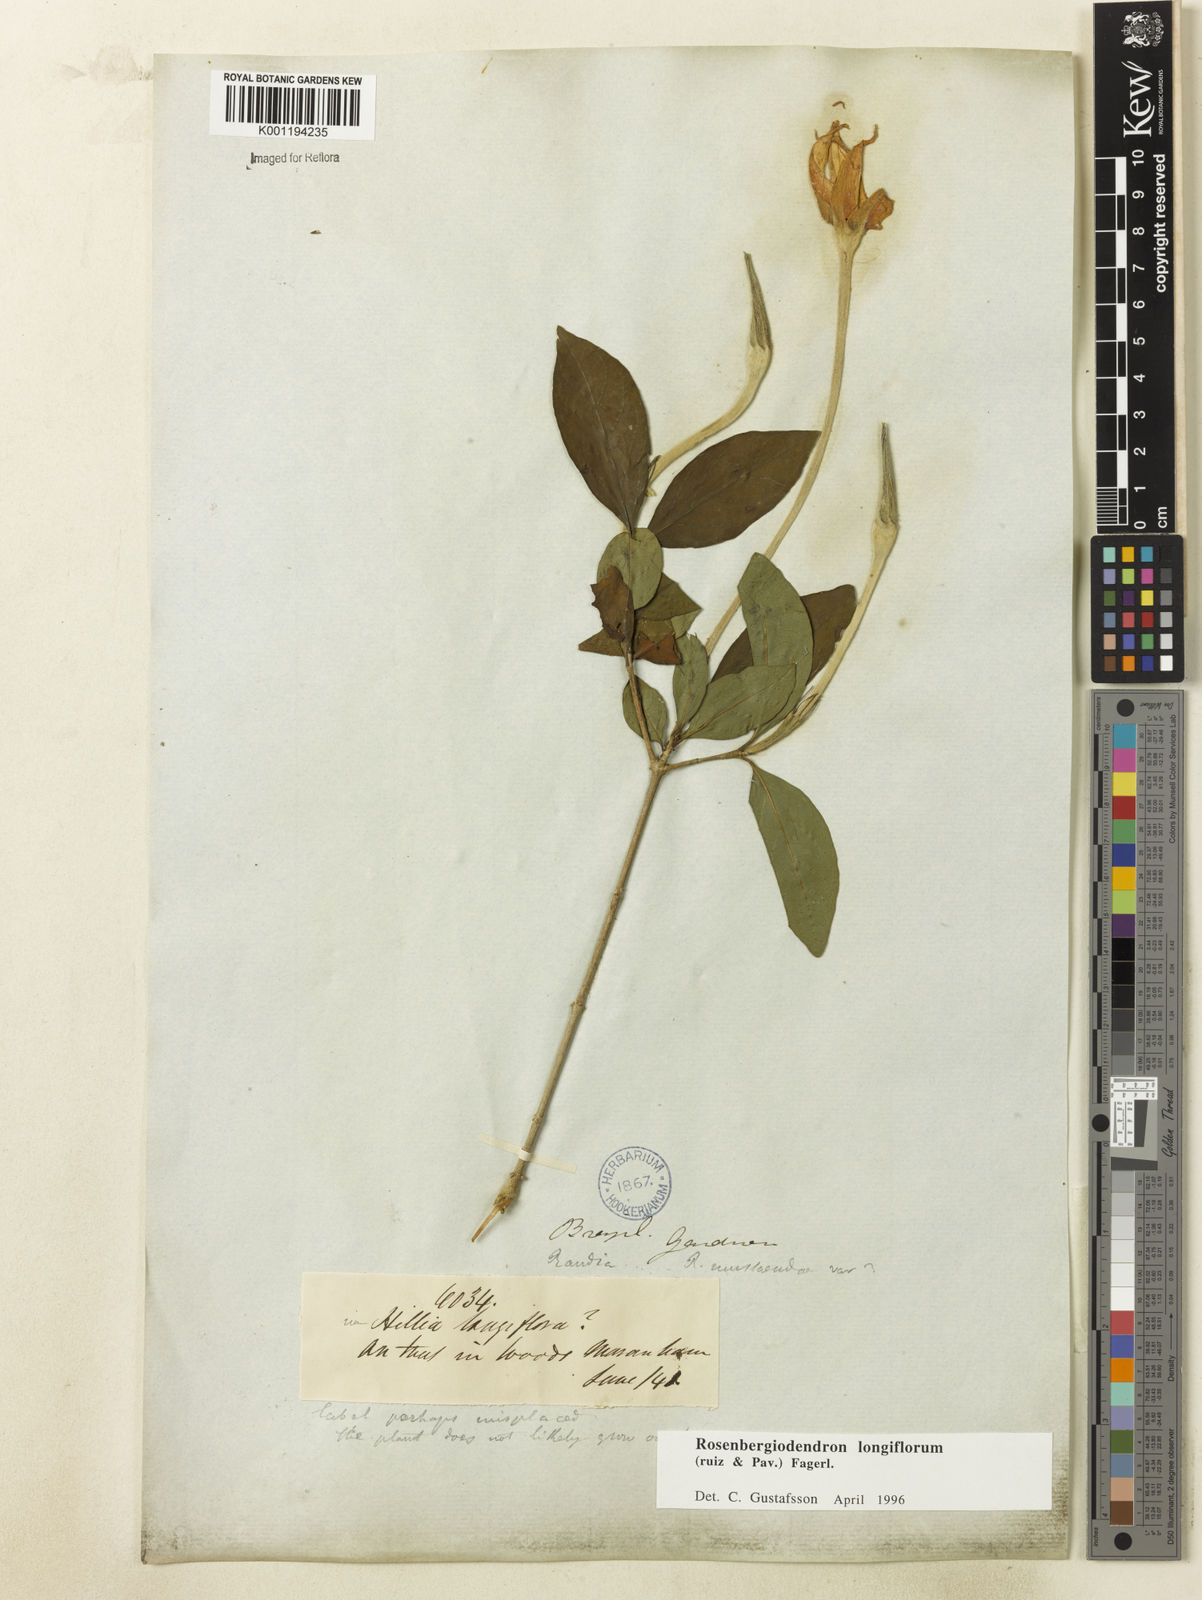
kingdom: Plantae
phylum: Tracheophyta
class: Magnoliopsida
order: Gentianales
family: Rubiaceae
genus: Rosenbergiodendron
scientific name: Rosenbergiodendron longiflorum
